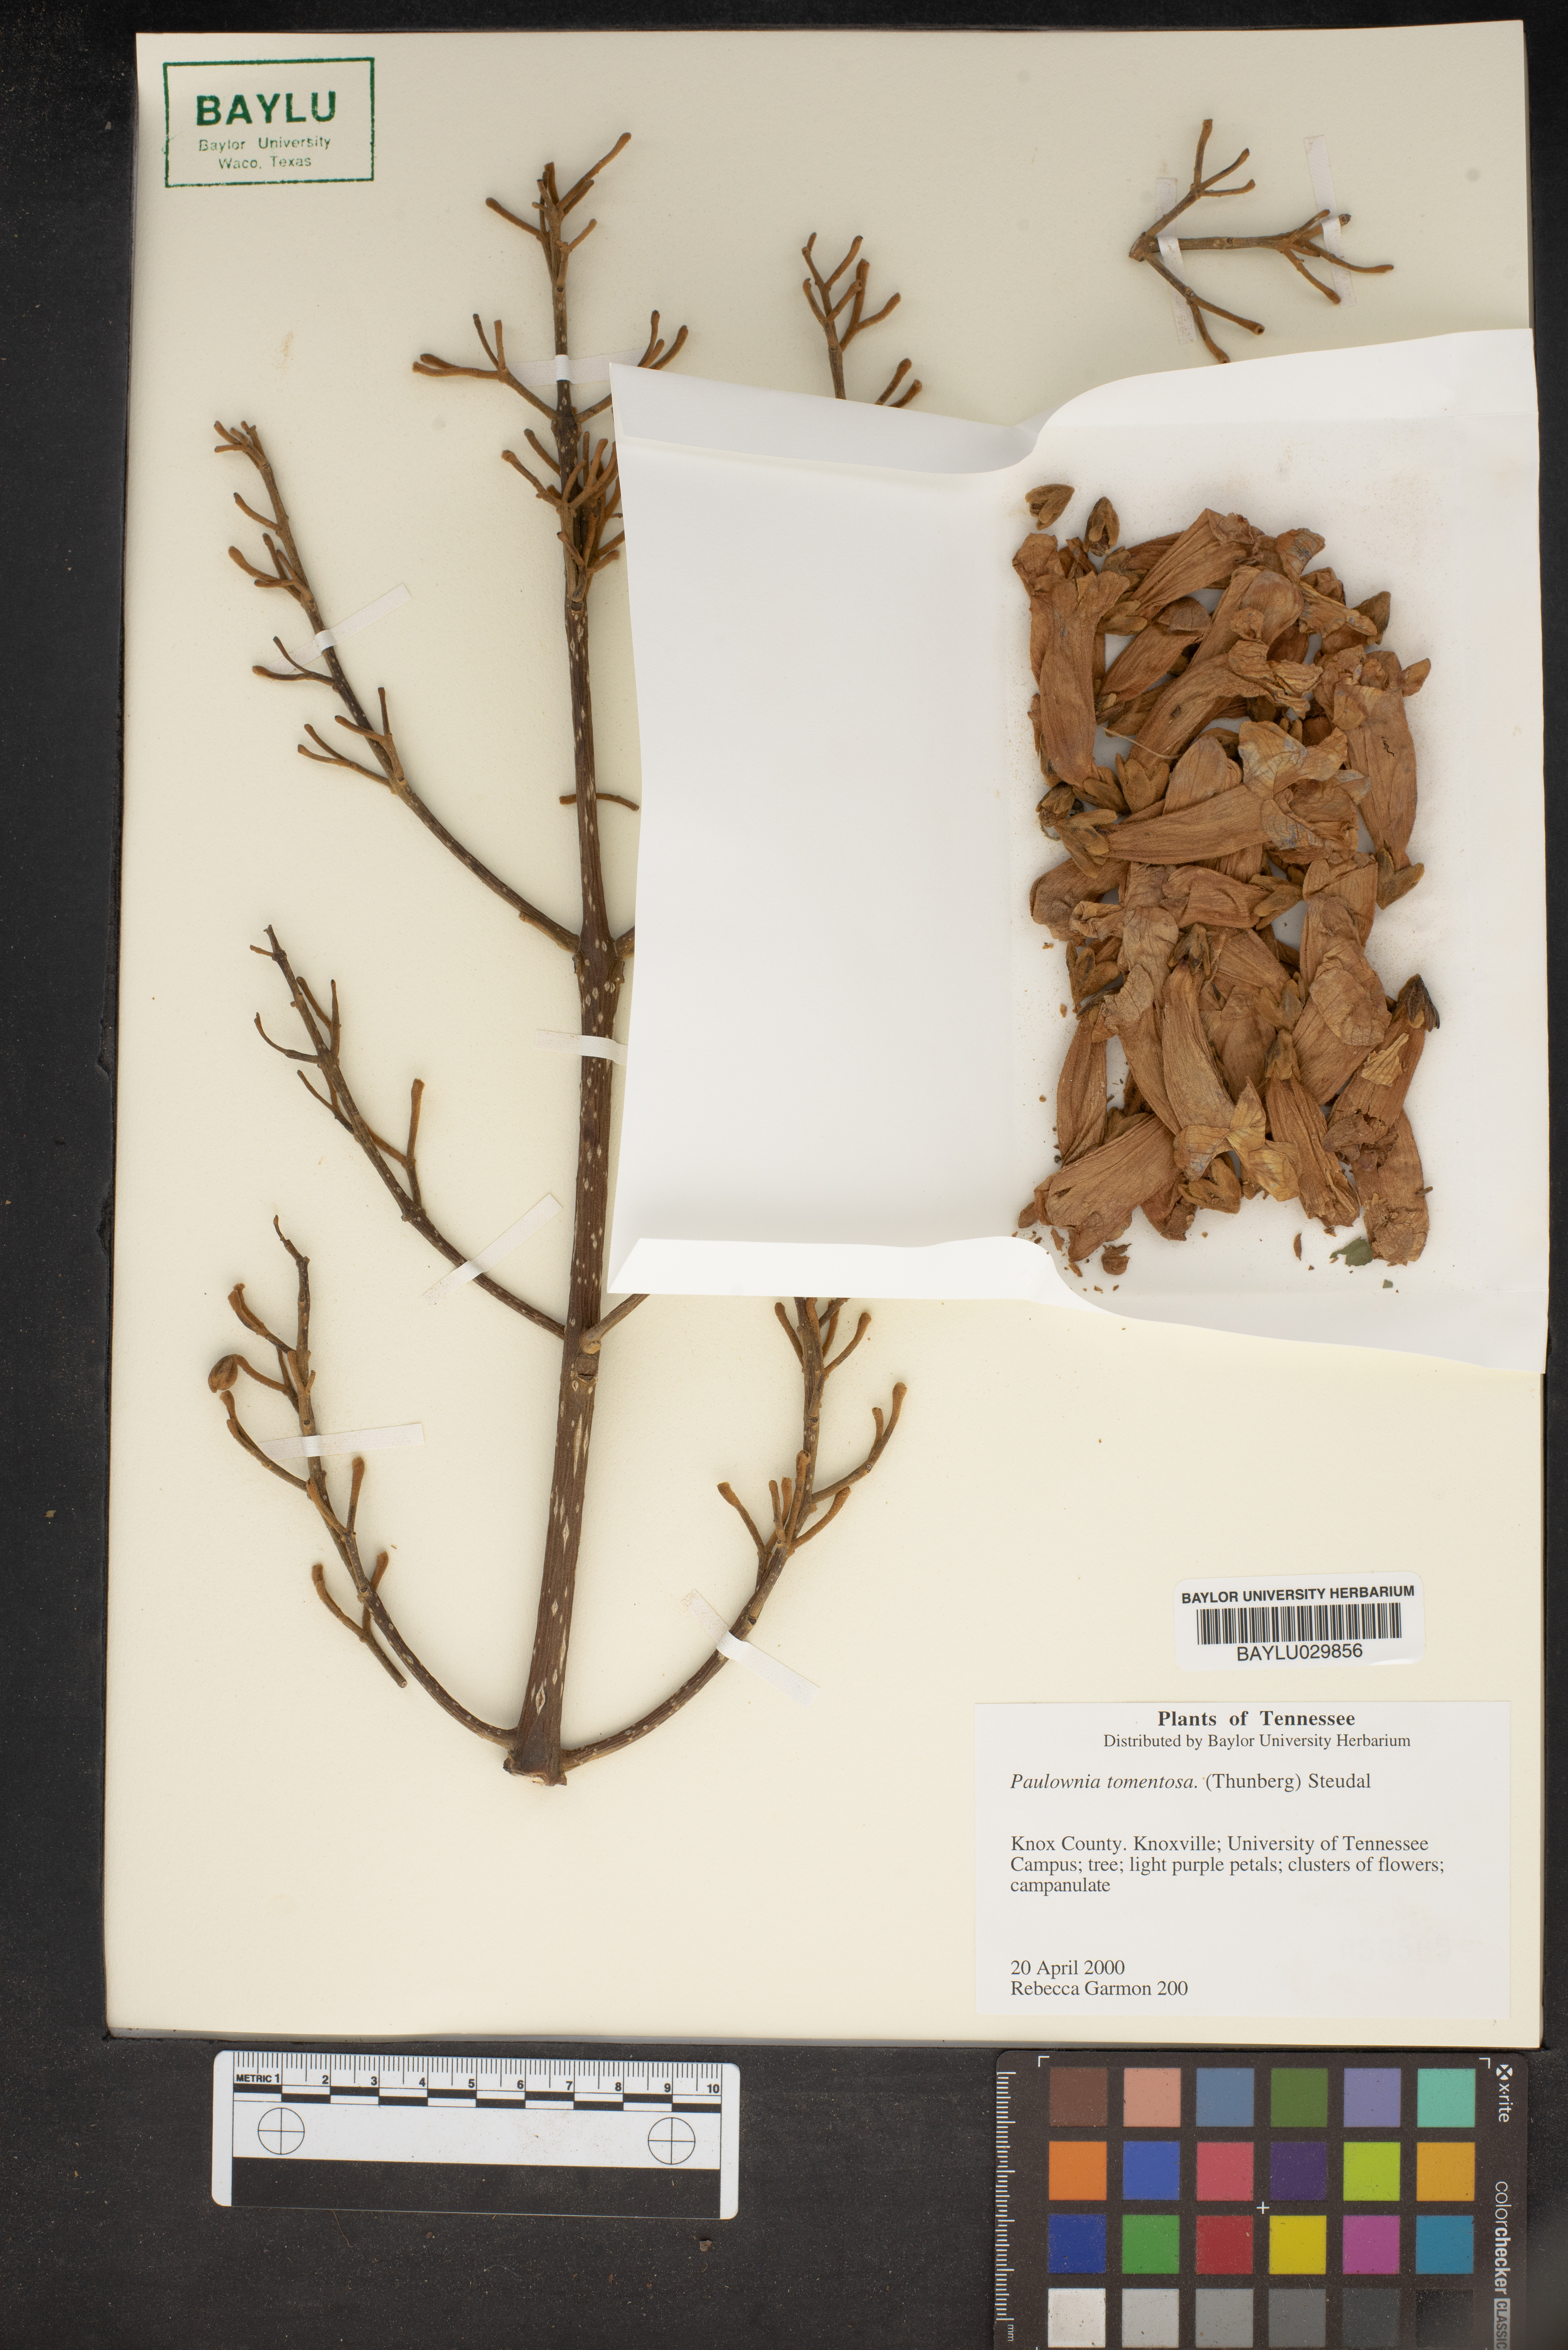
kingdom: Plantae
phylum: Tracheophyta
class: Magnoliopsida
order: Lamiales
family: Paulowniaceae
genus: Paulownia
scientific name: Paulownia tomentosa
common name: Foxglove-tree
